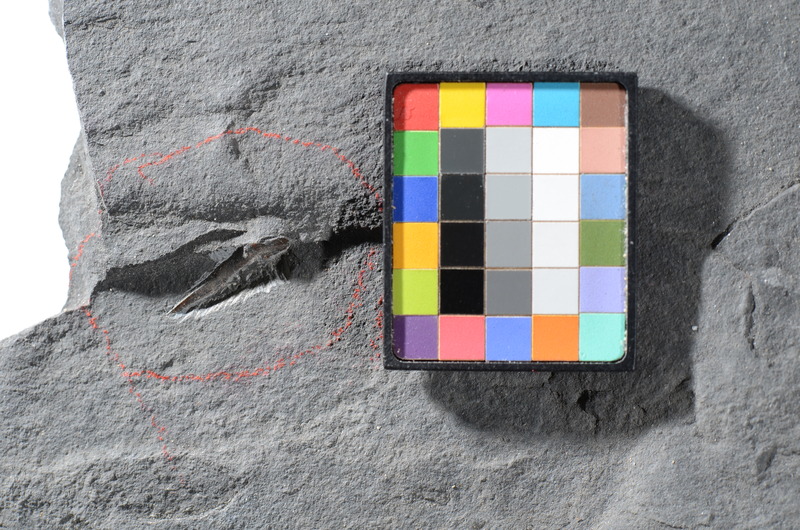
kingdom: Animalia
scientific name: Animalia
